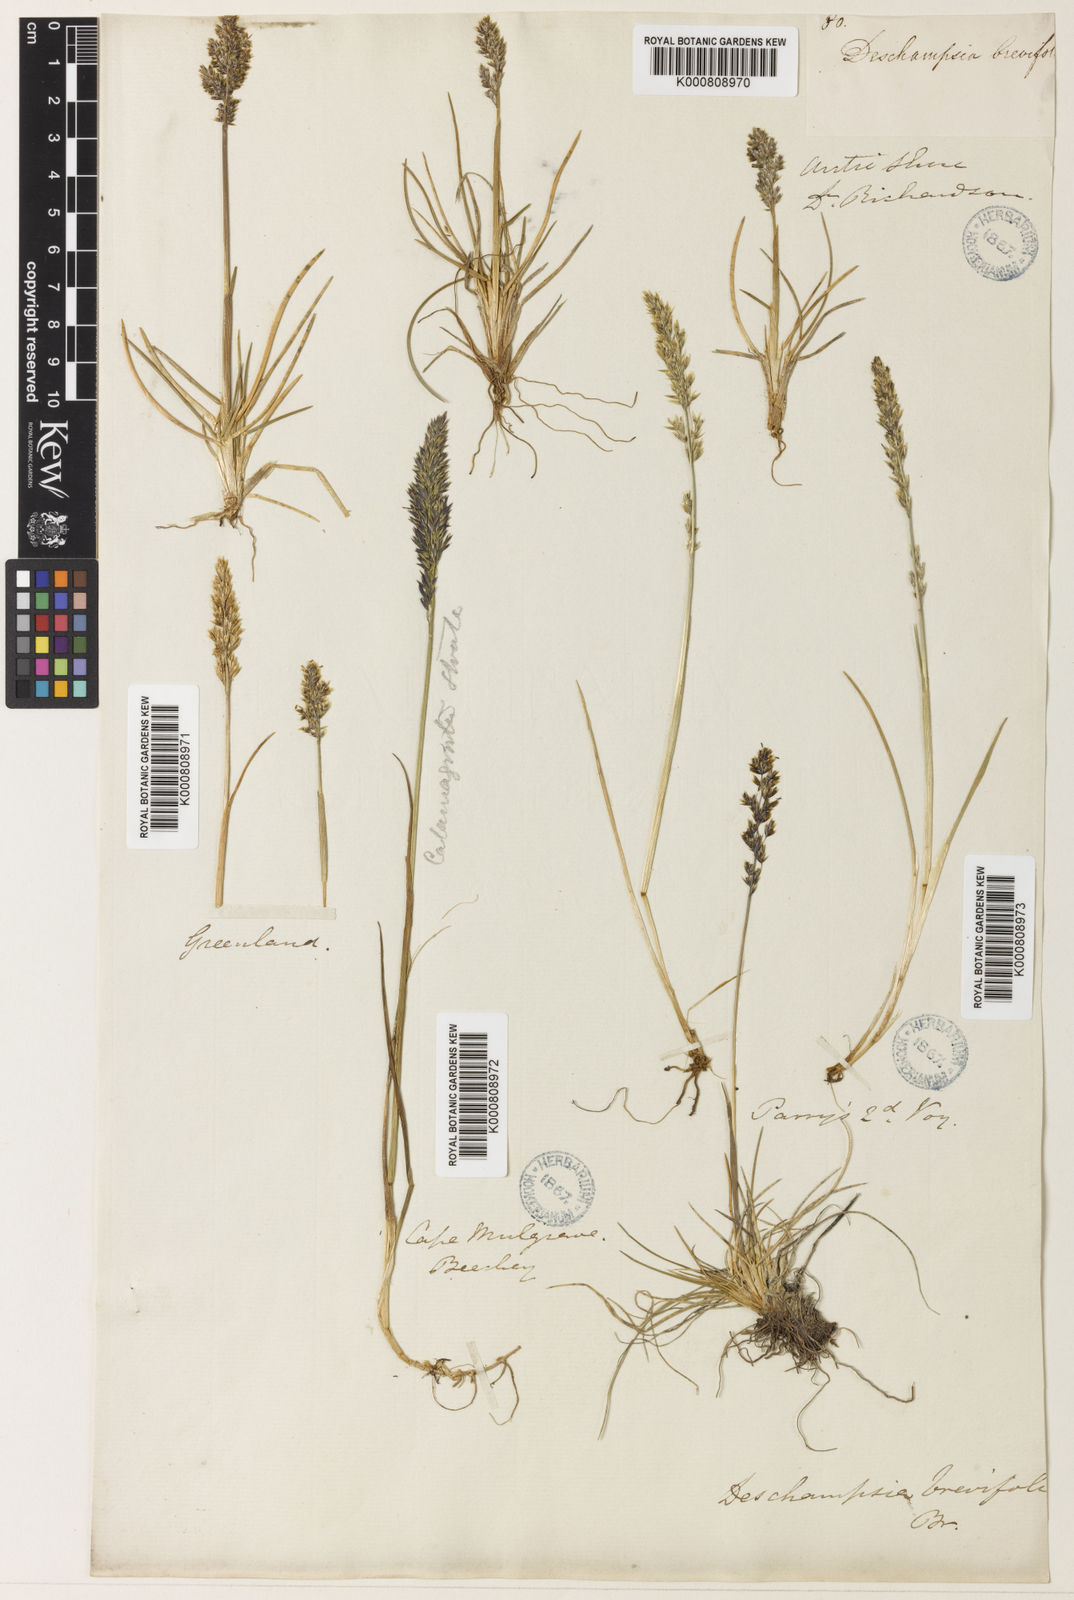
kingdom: Plantae
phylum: Tracheophyta
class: Liliopsida
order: Poales
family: Poaceae
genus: Deschampsia
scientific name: Deschampsia
